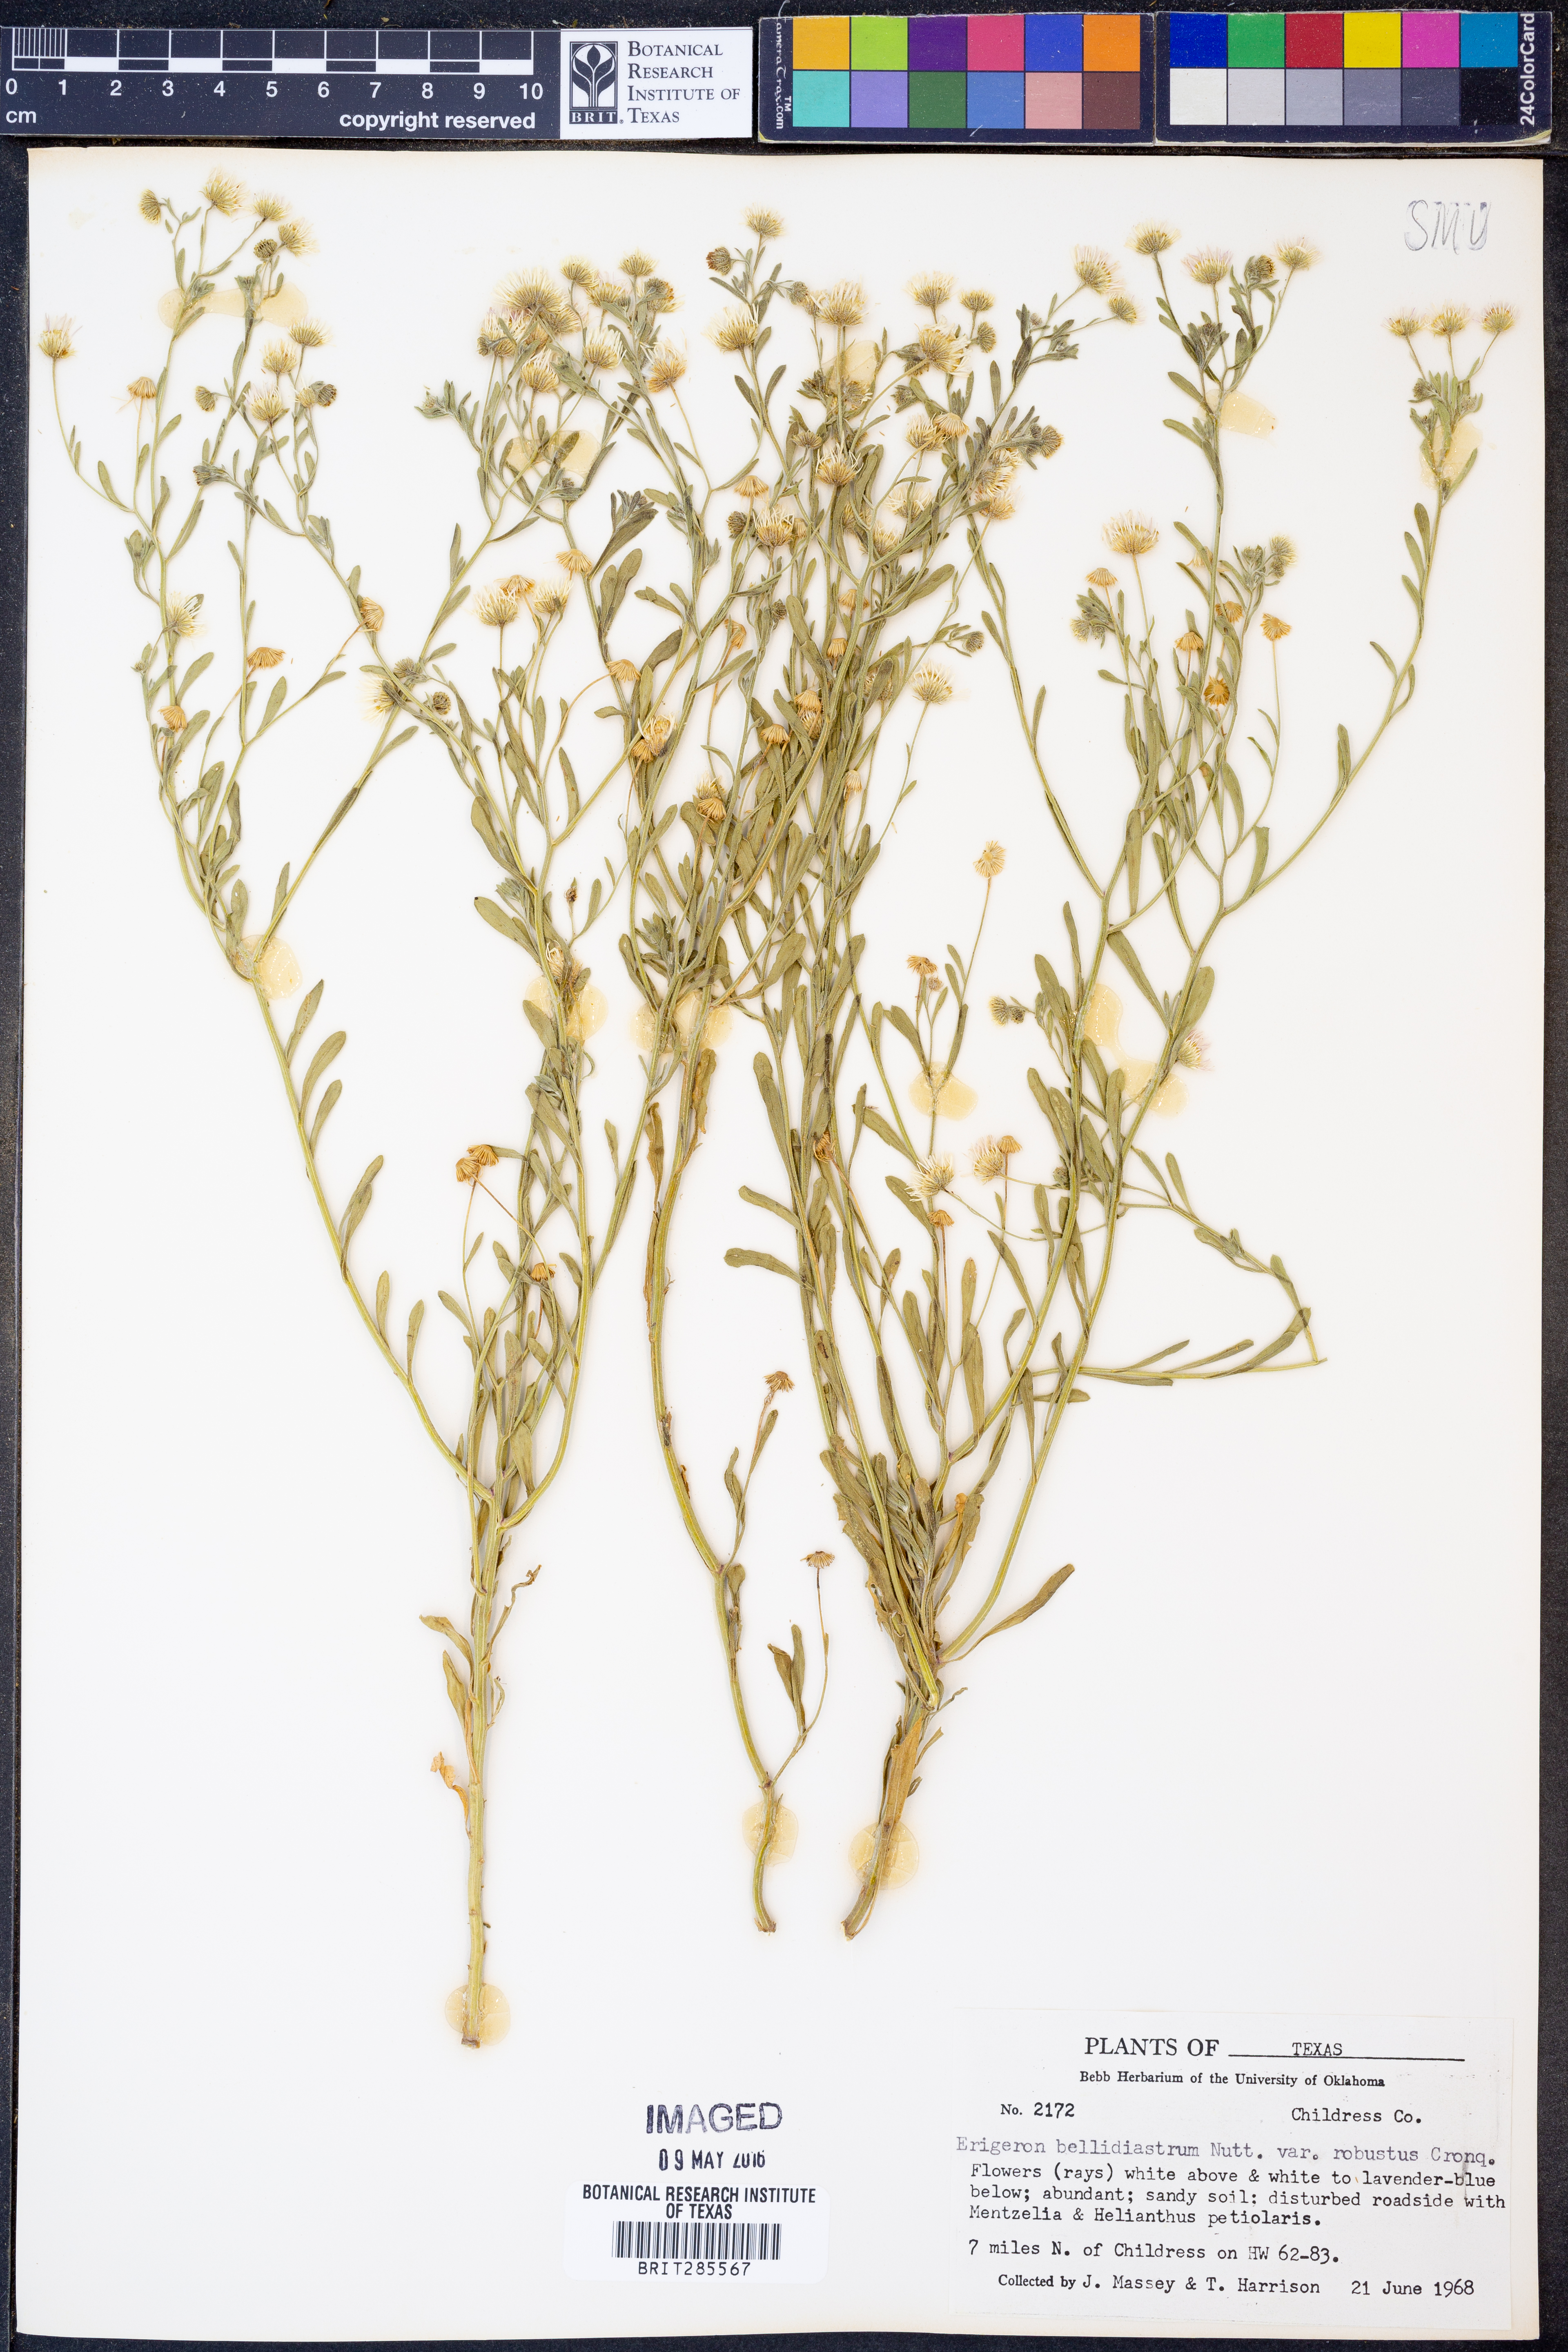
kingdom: Plantae
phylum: Tracheophyta
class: Magnoliopsida
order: Asterales
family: Asteraceae
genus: Erigeron
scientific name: Erigeron bellidiastrum
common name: Sand fleabane
